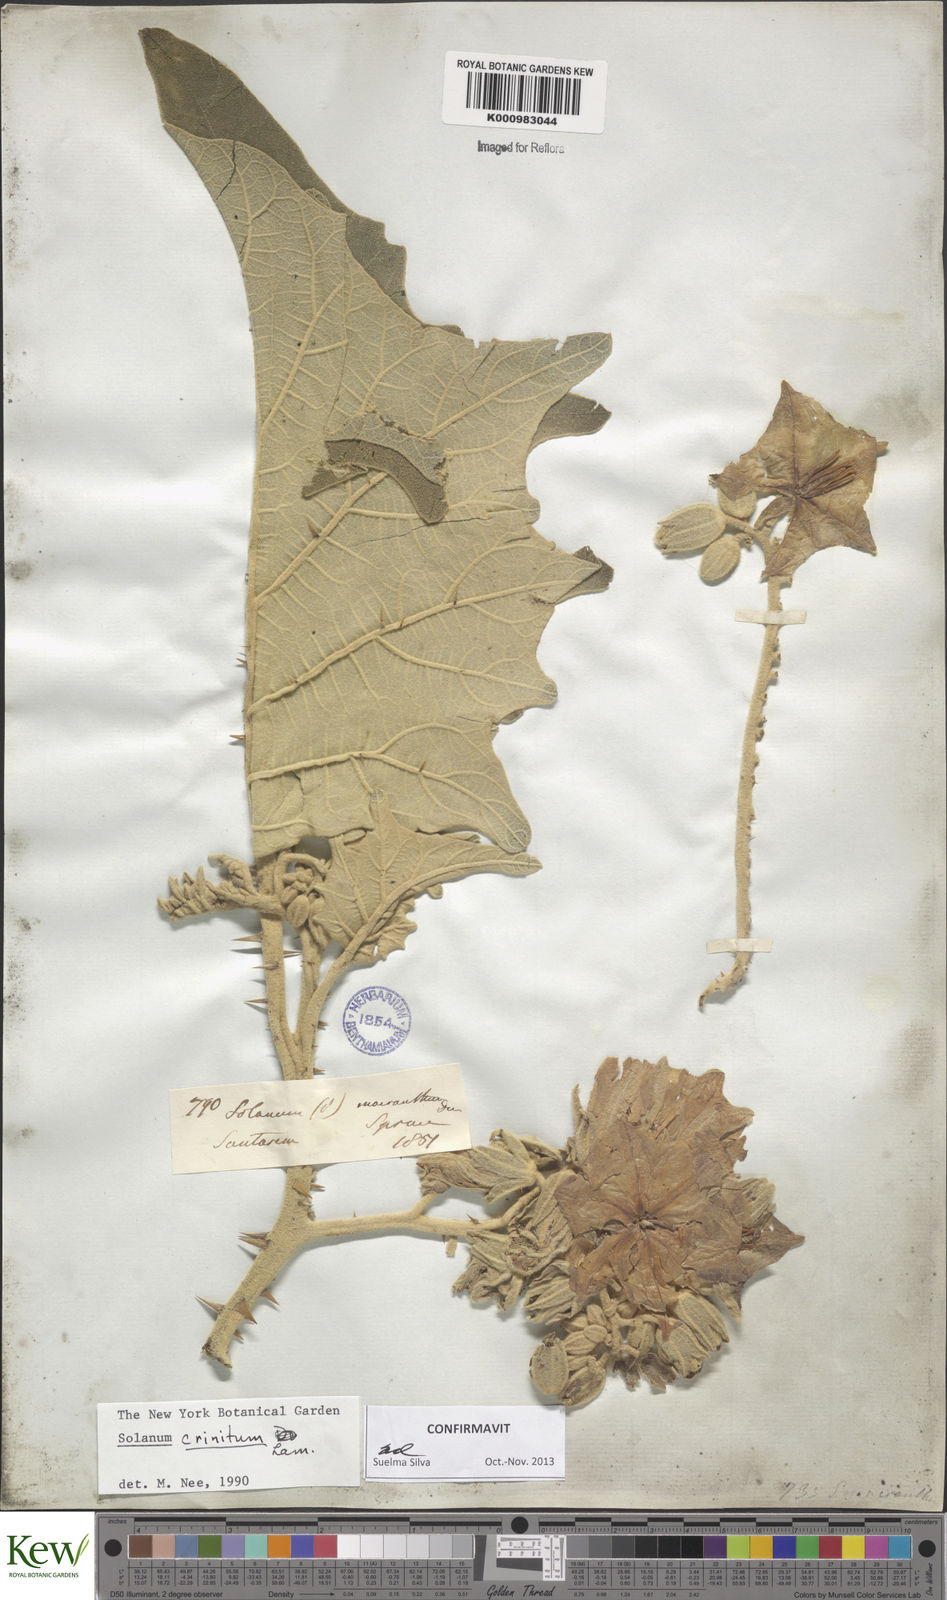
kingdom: Plantae
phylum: Tracheophyta
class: Magnoliopsida
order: Solanales
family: Solanaceae
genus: Solanum
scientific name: Solanum crinitum
